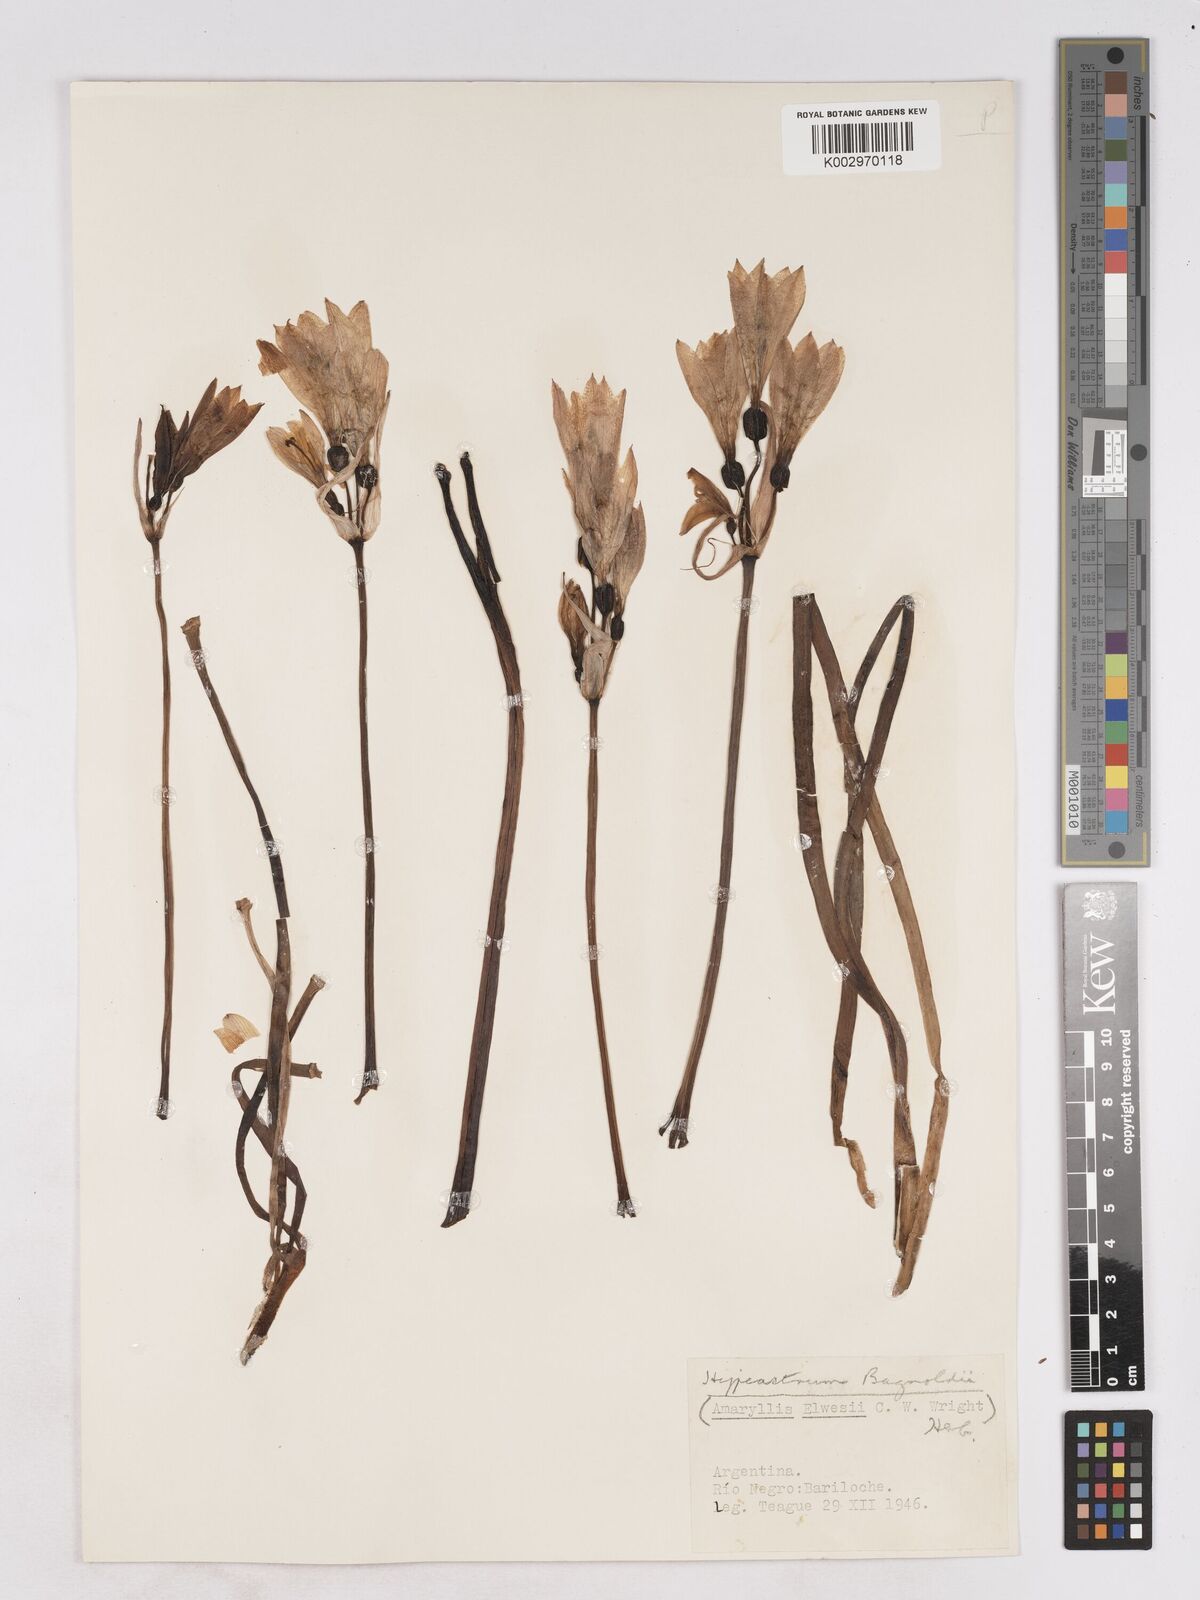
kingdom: Plantae
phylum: Tracheophyta
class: Liliopsida
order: Asparagales
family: Amaryllidaceae
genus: Zephyranthes
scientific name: Zephyranthes bagnoldii
